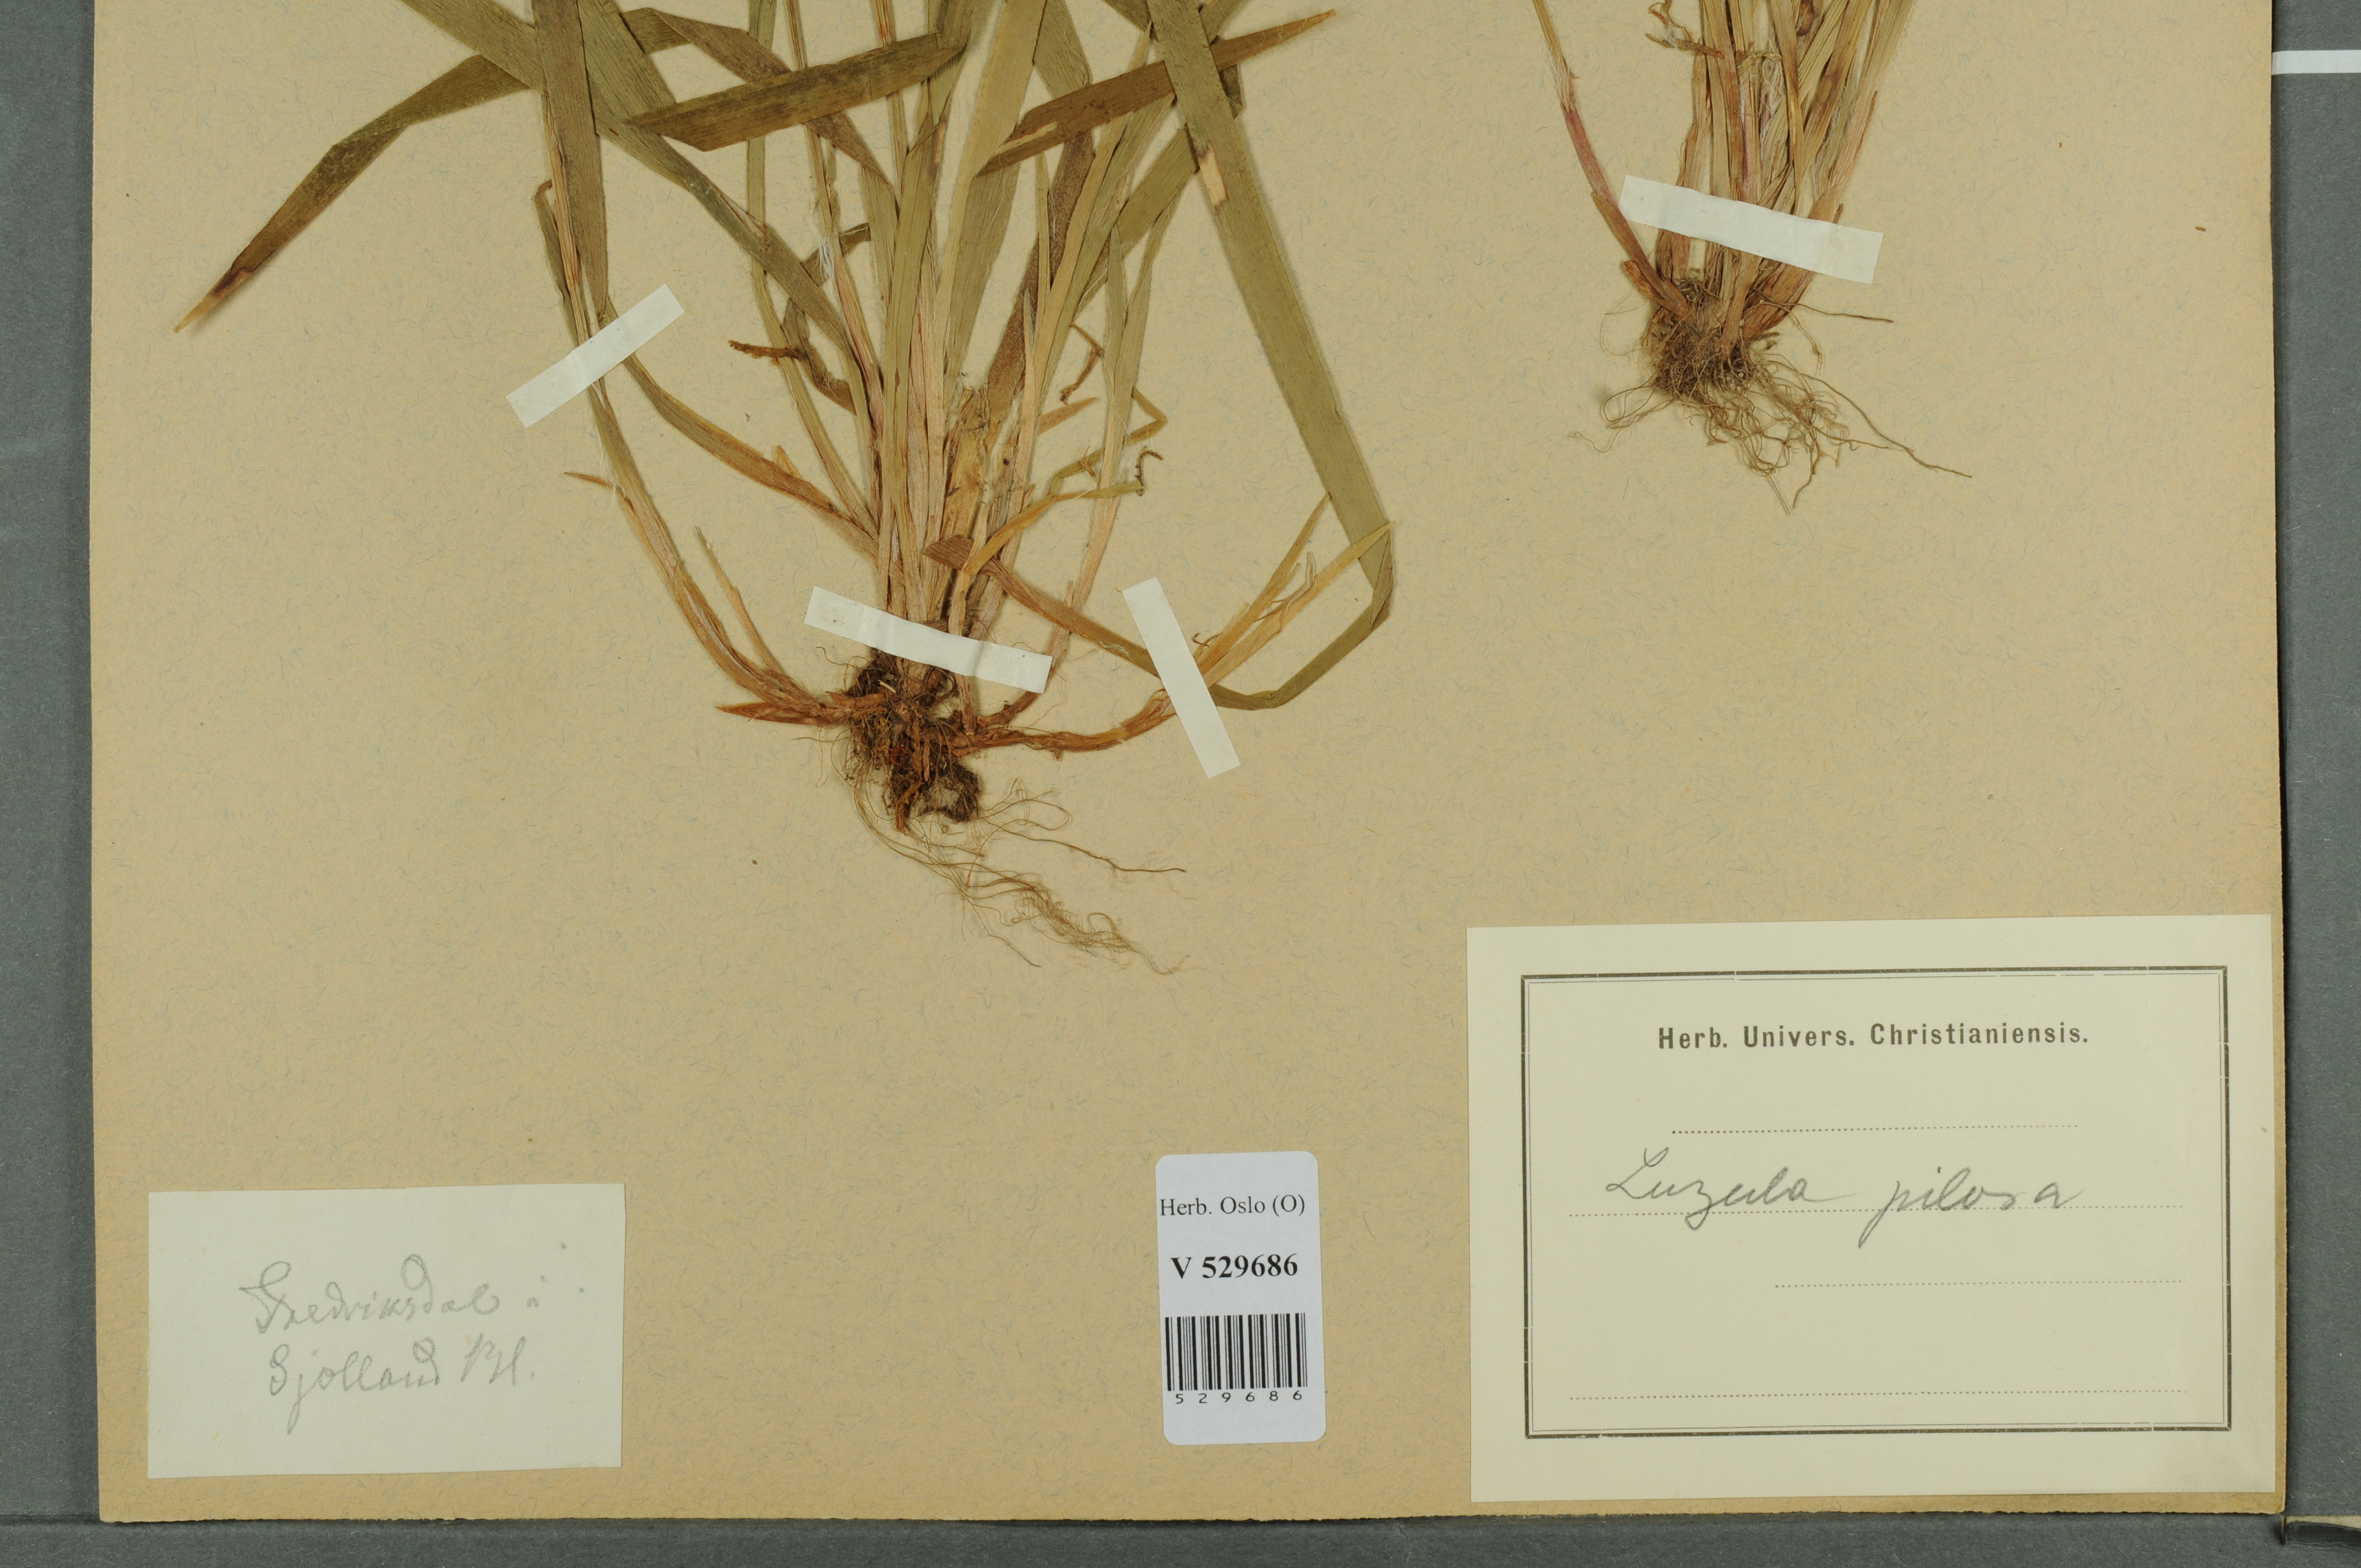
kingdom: Plantae
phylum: Tracheophyta
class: Liliopsida
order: Poales
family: Juncaceae
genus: Luzula
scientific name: Luzula pilosa
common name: Hairy wood-rush
